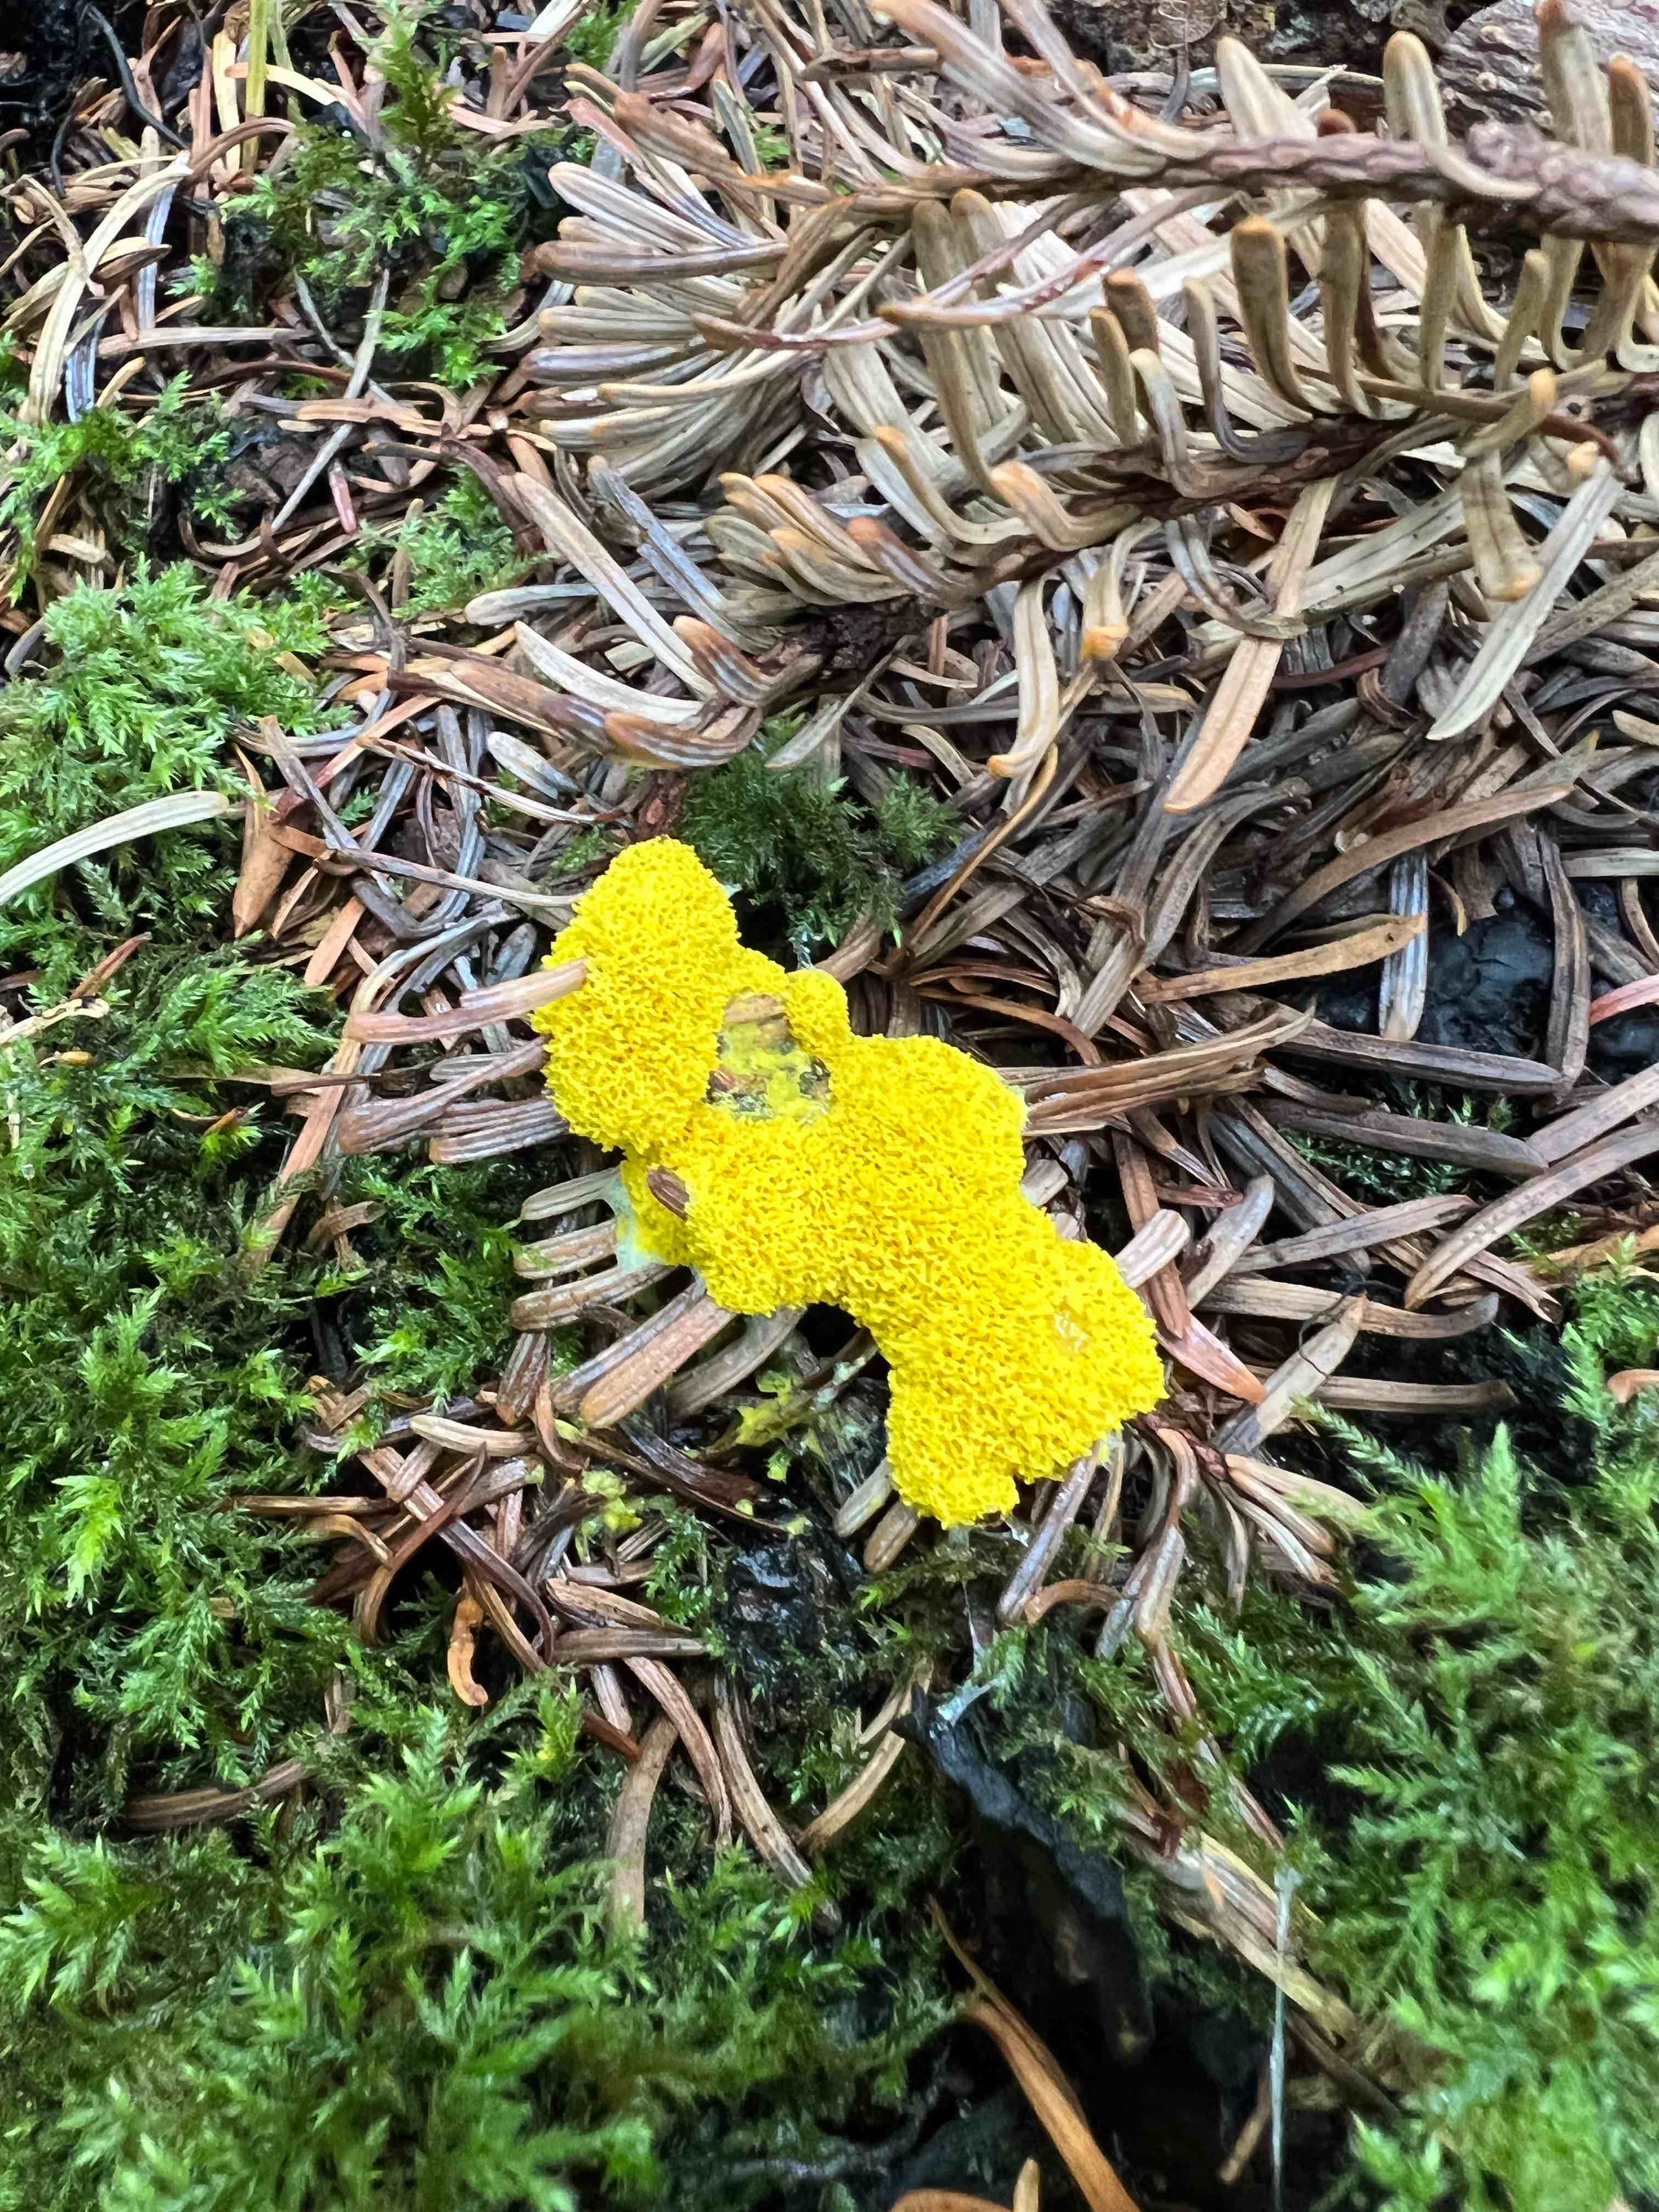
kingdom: Protozoa
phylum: Mycetozoa
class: Myxomycetes
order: Physarales
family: Physaraceae
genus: Fuligo
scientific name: Fuligo septica
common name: gul troldsmør
